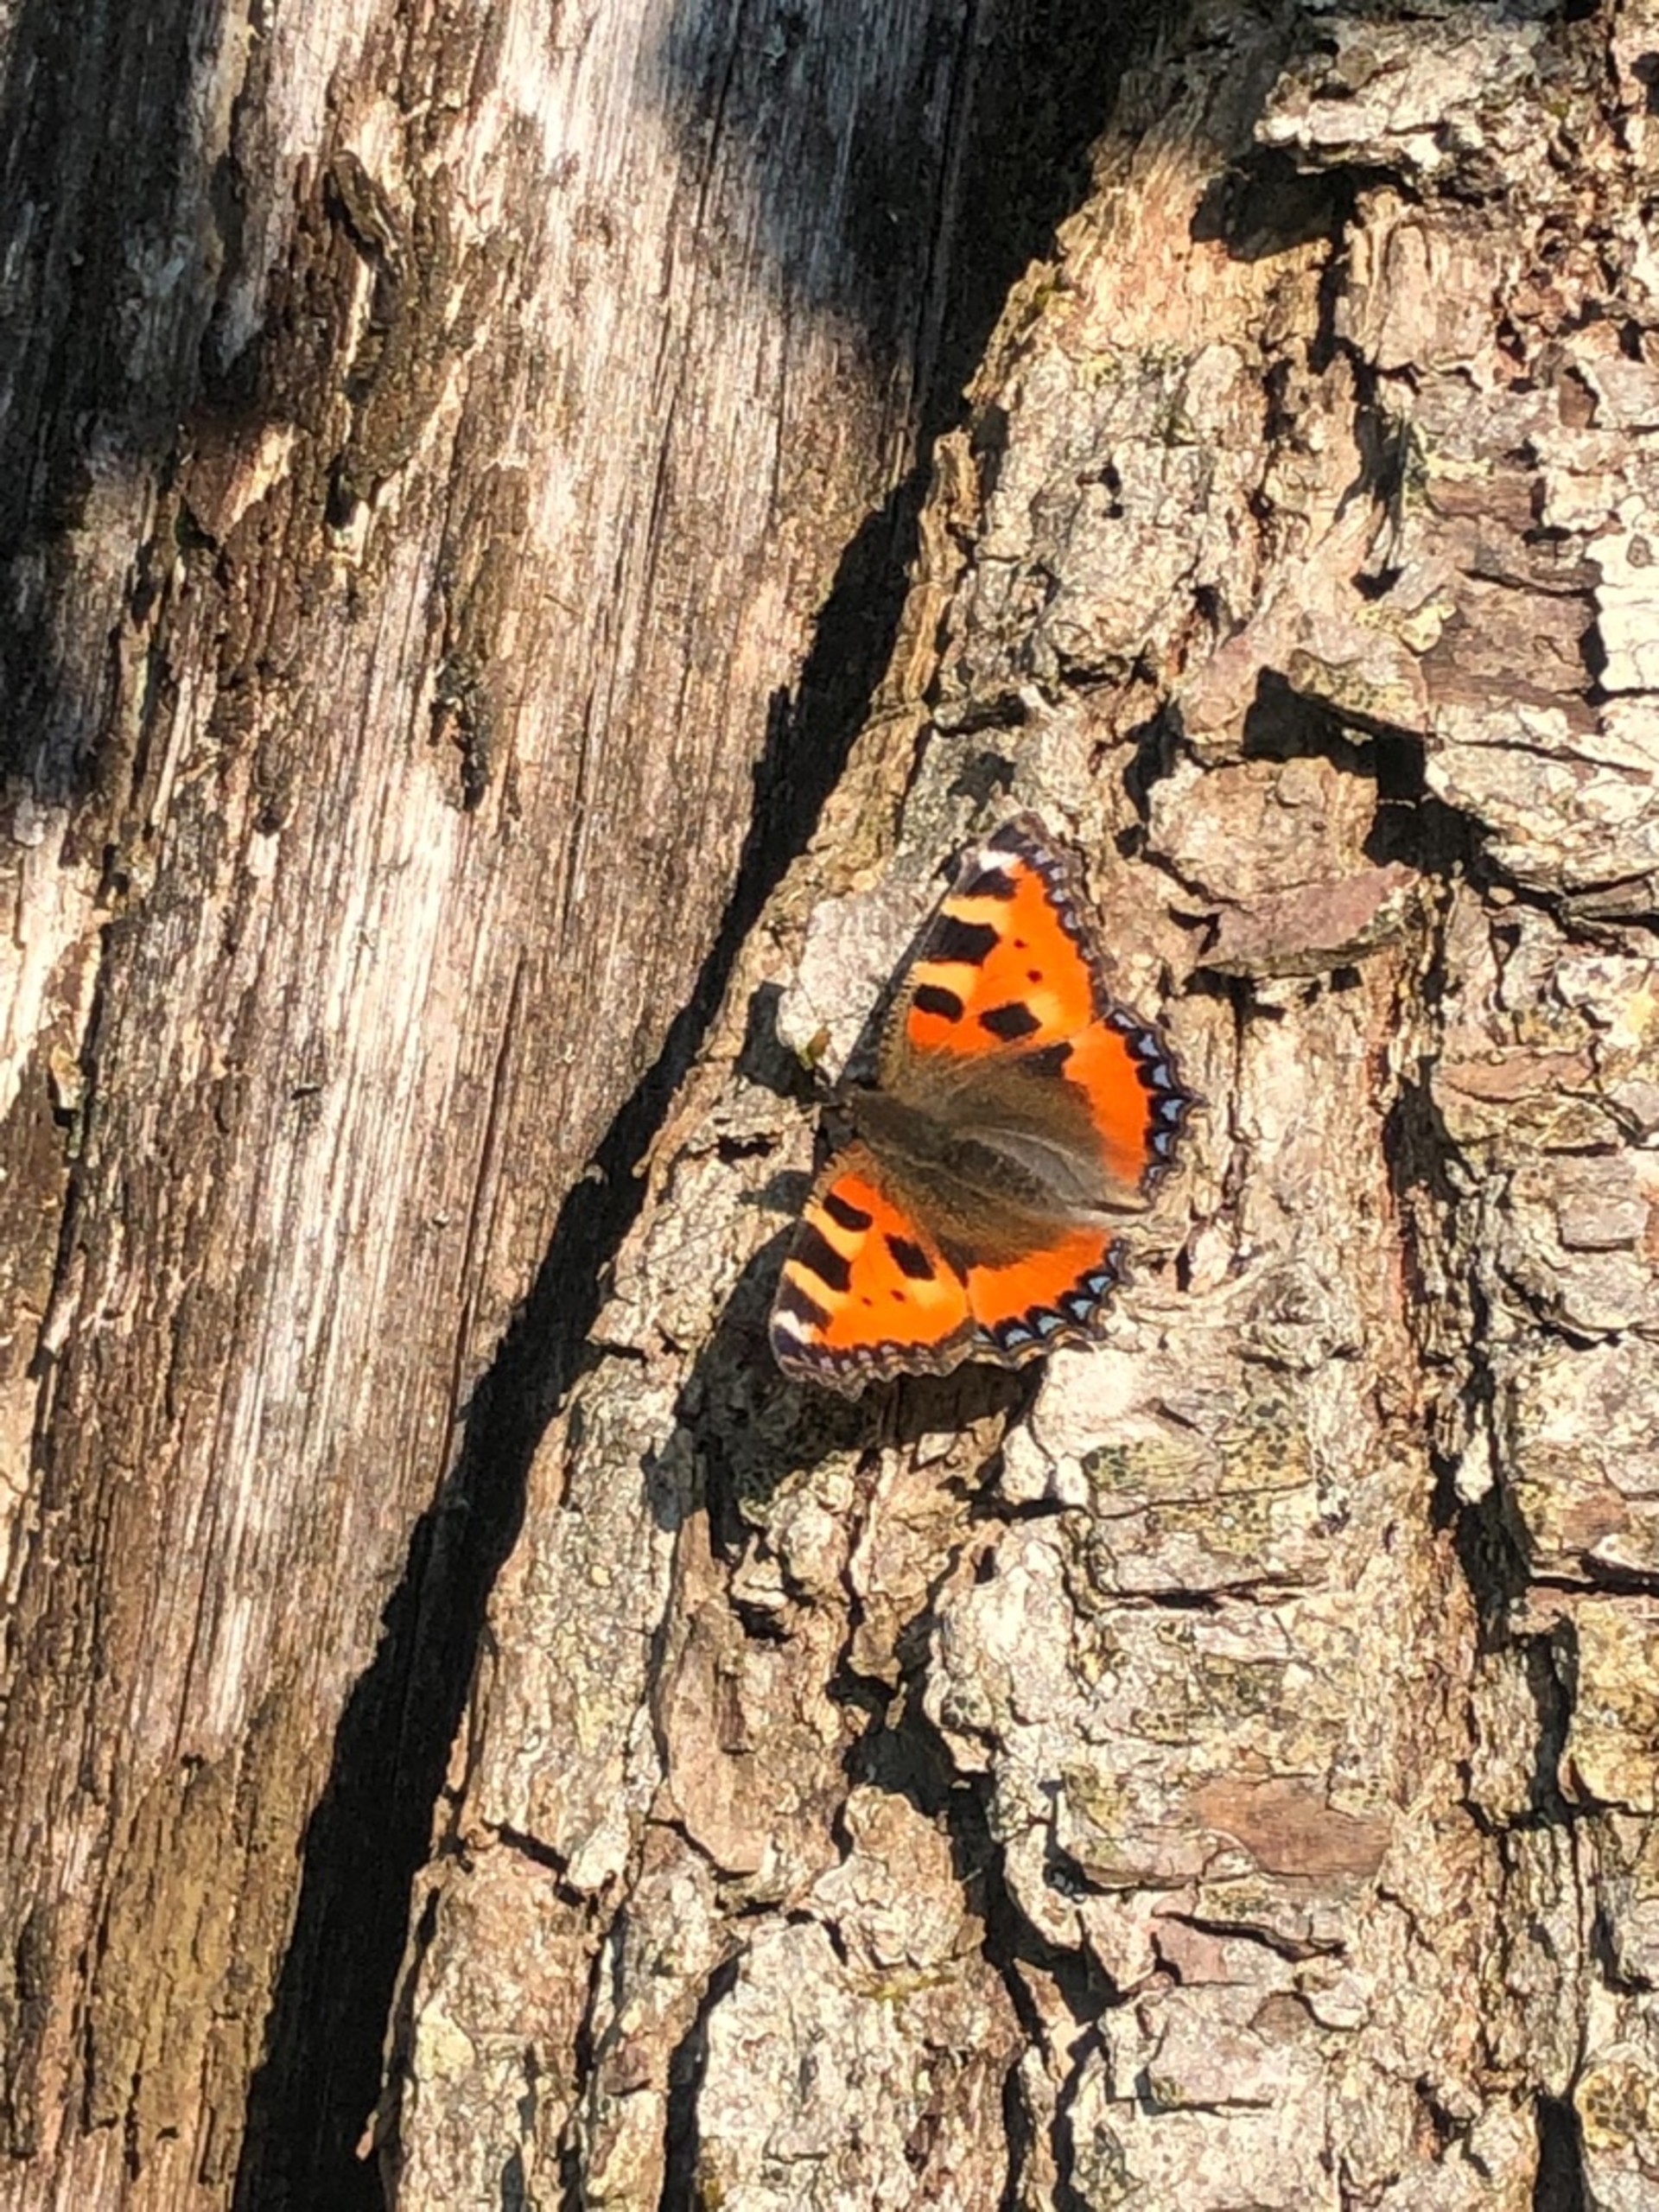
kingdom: Animalia
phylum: Arthropoda
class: Insecta
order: Lepidoptera
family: Nymphalidae
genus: Aglais
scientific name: Aglais urticae
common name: Nældens takvinge
